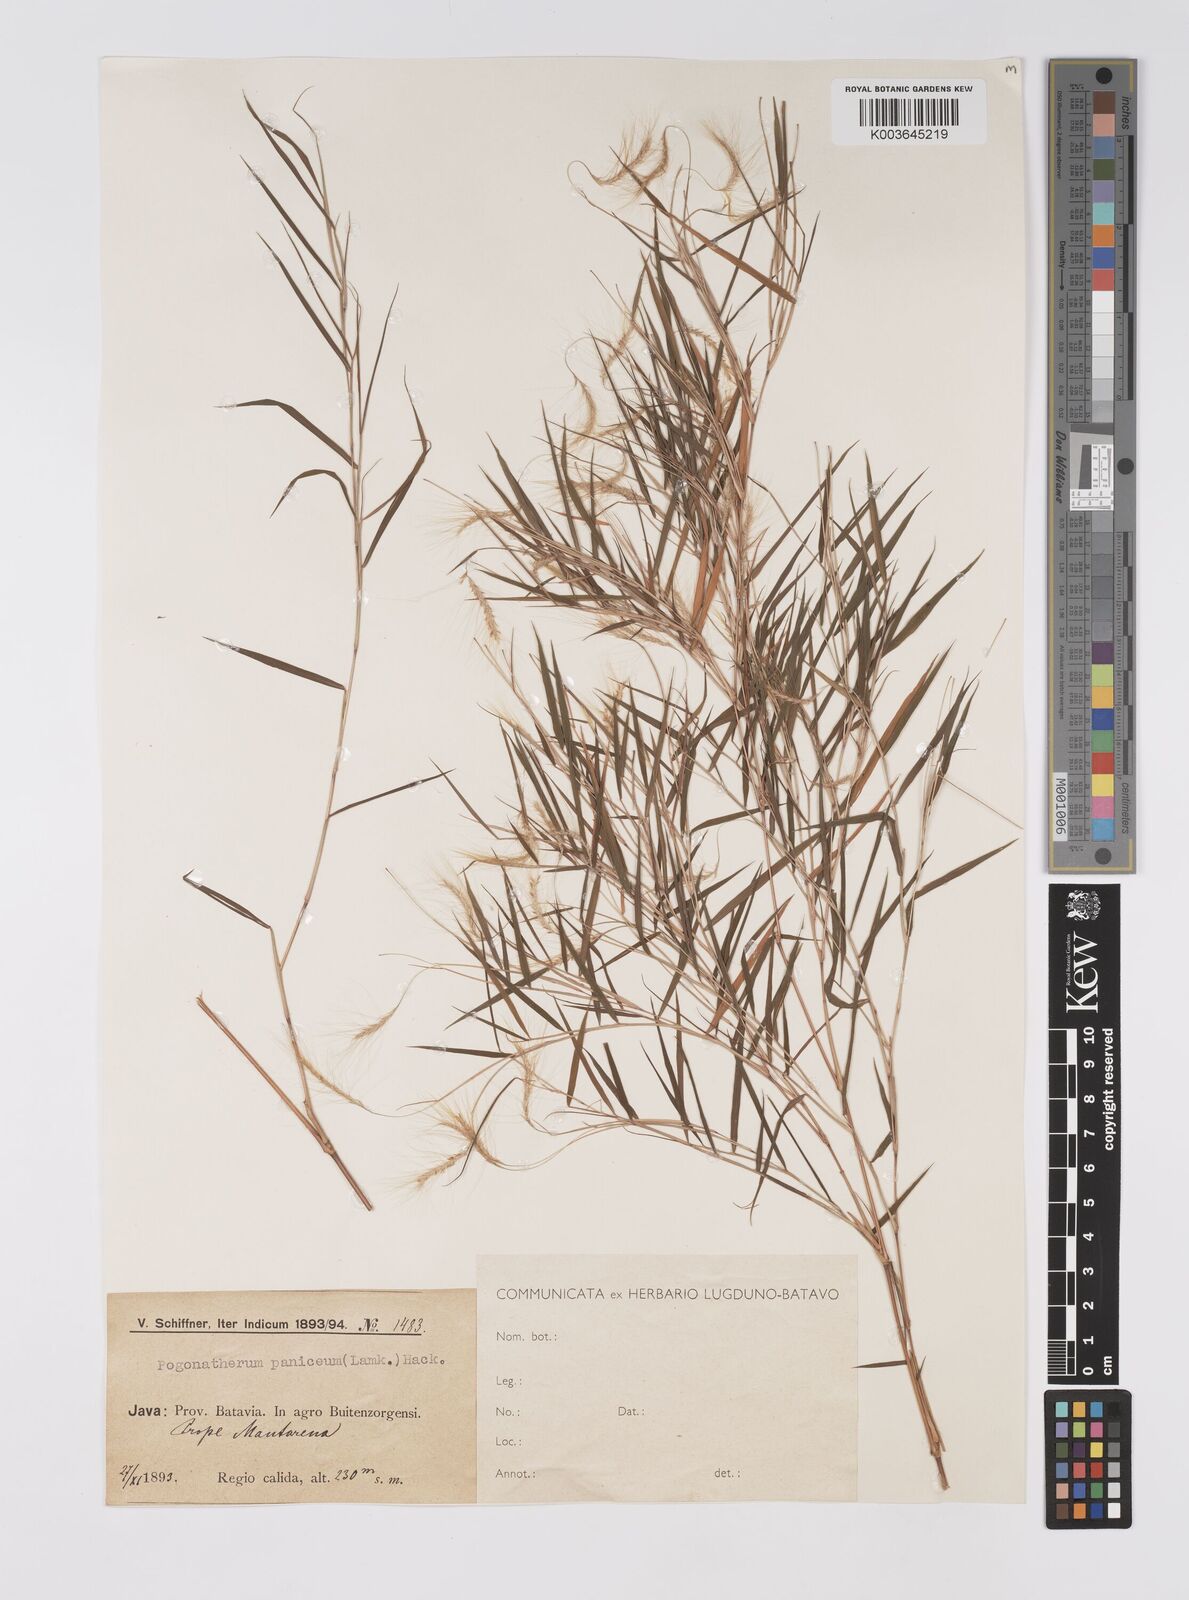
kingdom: Plantae
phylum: Tracheophyta
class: Liliopsida
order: Poales
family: Poaceae
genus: Pogonatherum
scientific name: Pogonatherum paniceum
